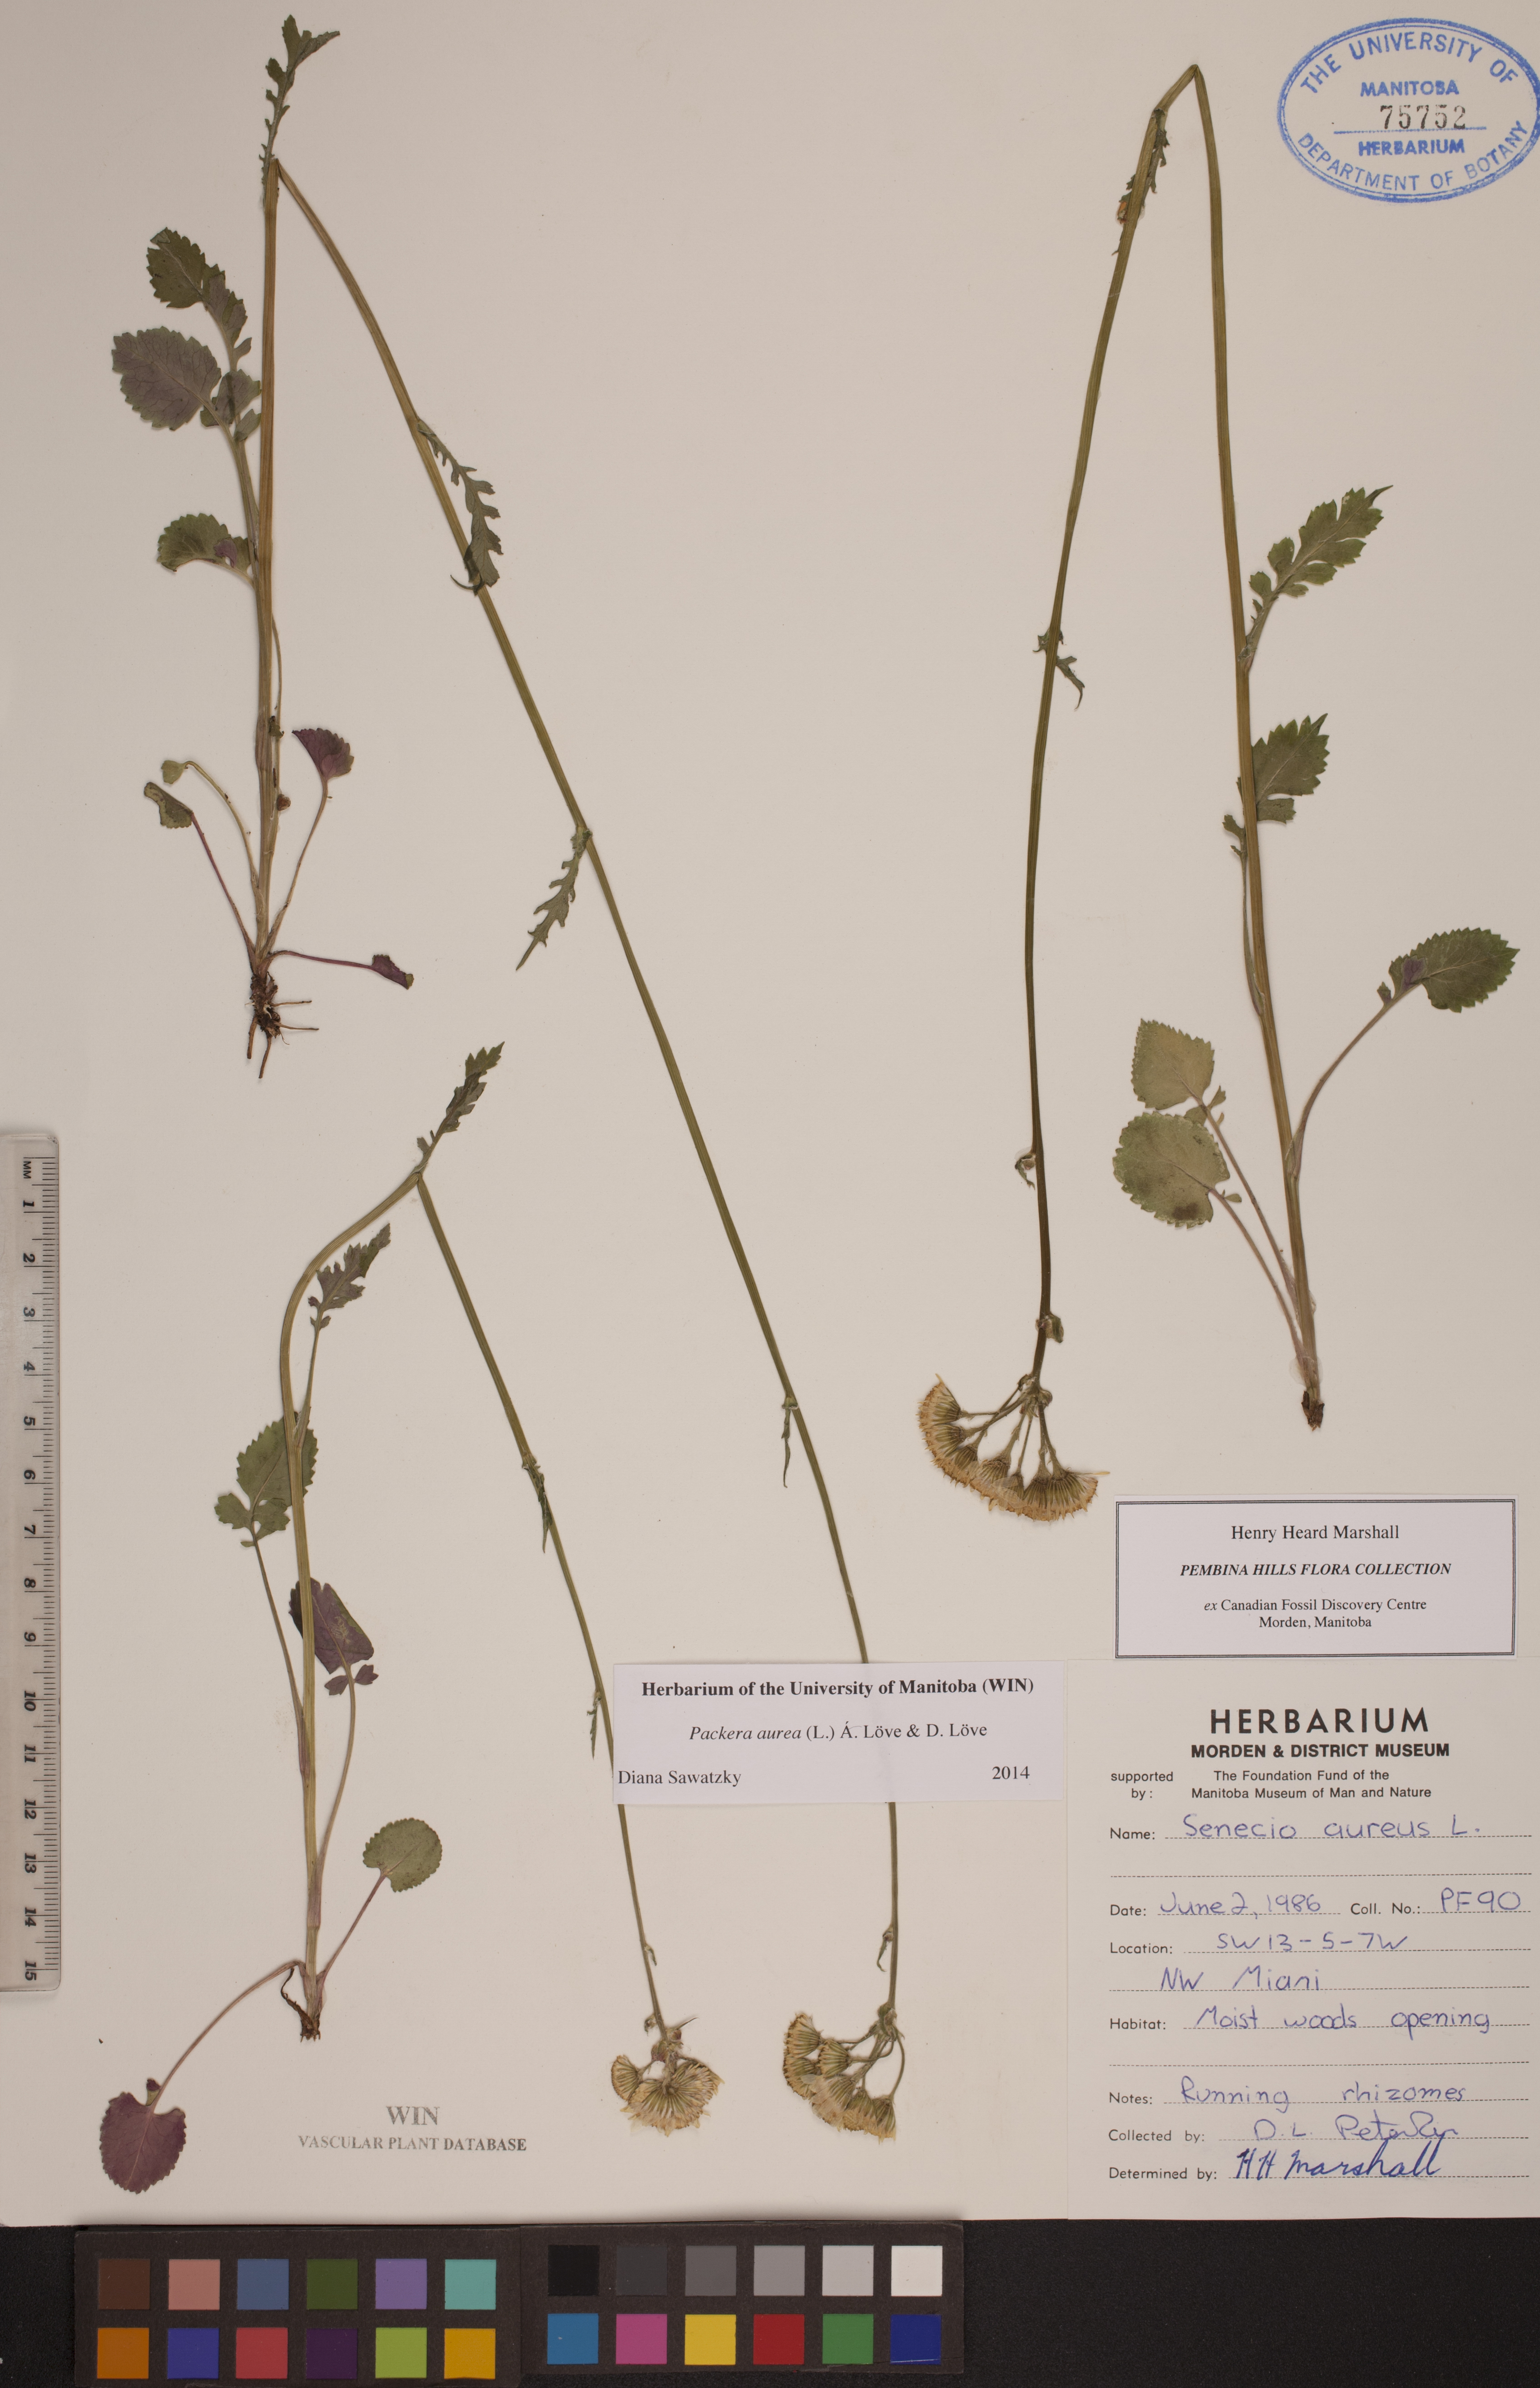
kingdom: Plantae
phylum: Tracheophyta
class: Magnoliopsida
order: Asterales
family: Asteraceae
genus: Packera
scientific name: Packera aurea
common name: Golden groundsel
